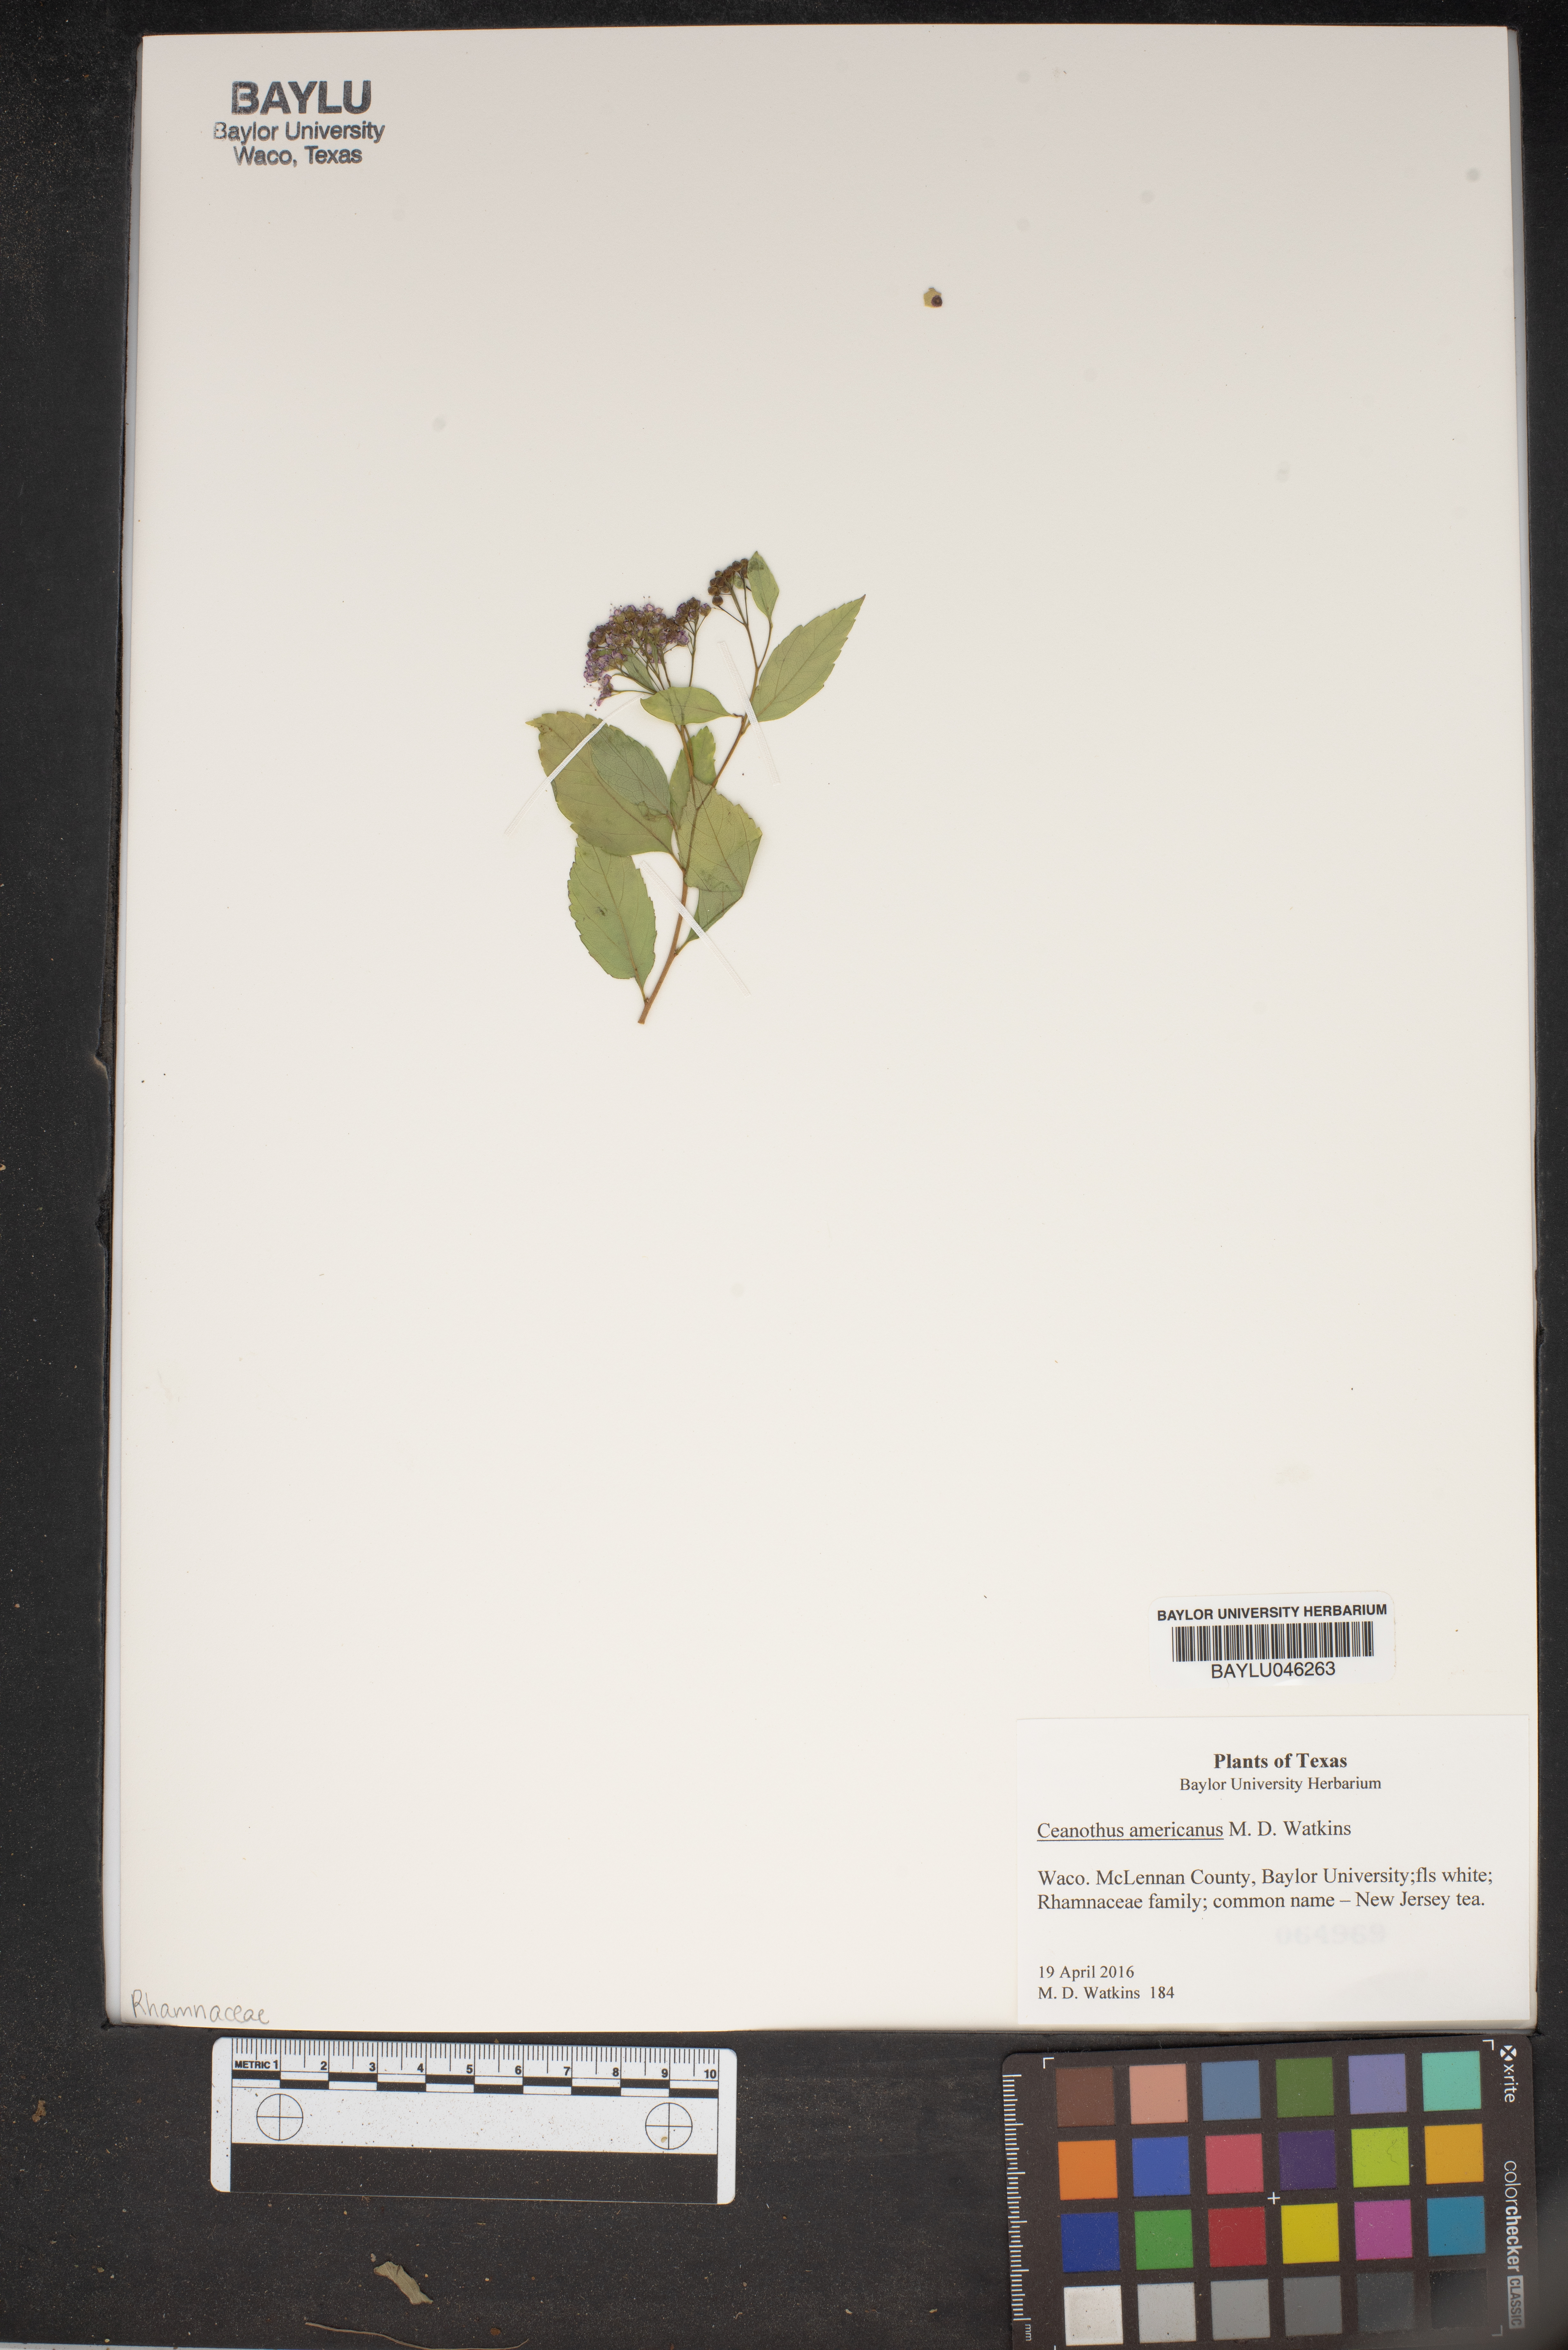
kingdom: Plantae
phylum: Tracheophyta
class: Magnoliopsida
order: Rosales
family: Rhamnaceae
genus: Ceanothus
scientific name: Ceanothus americanus
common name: Redroot
